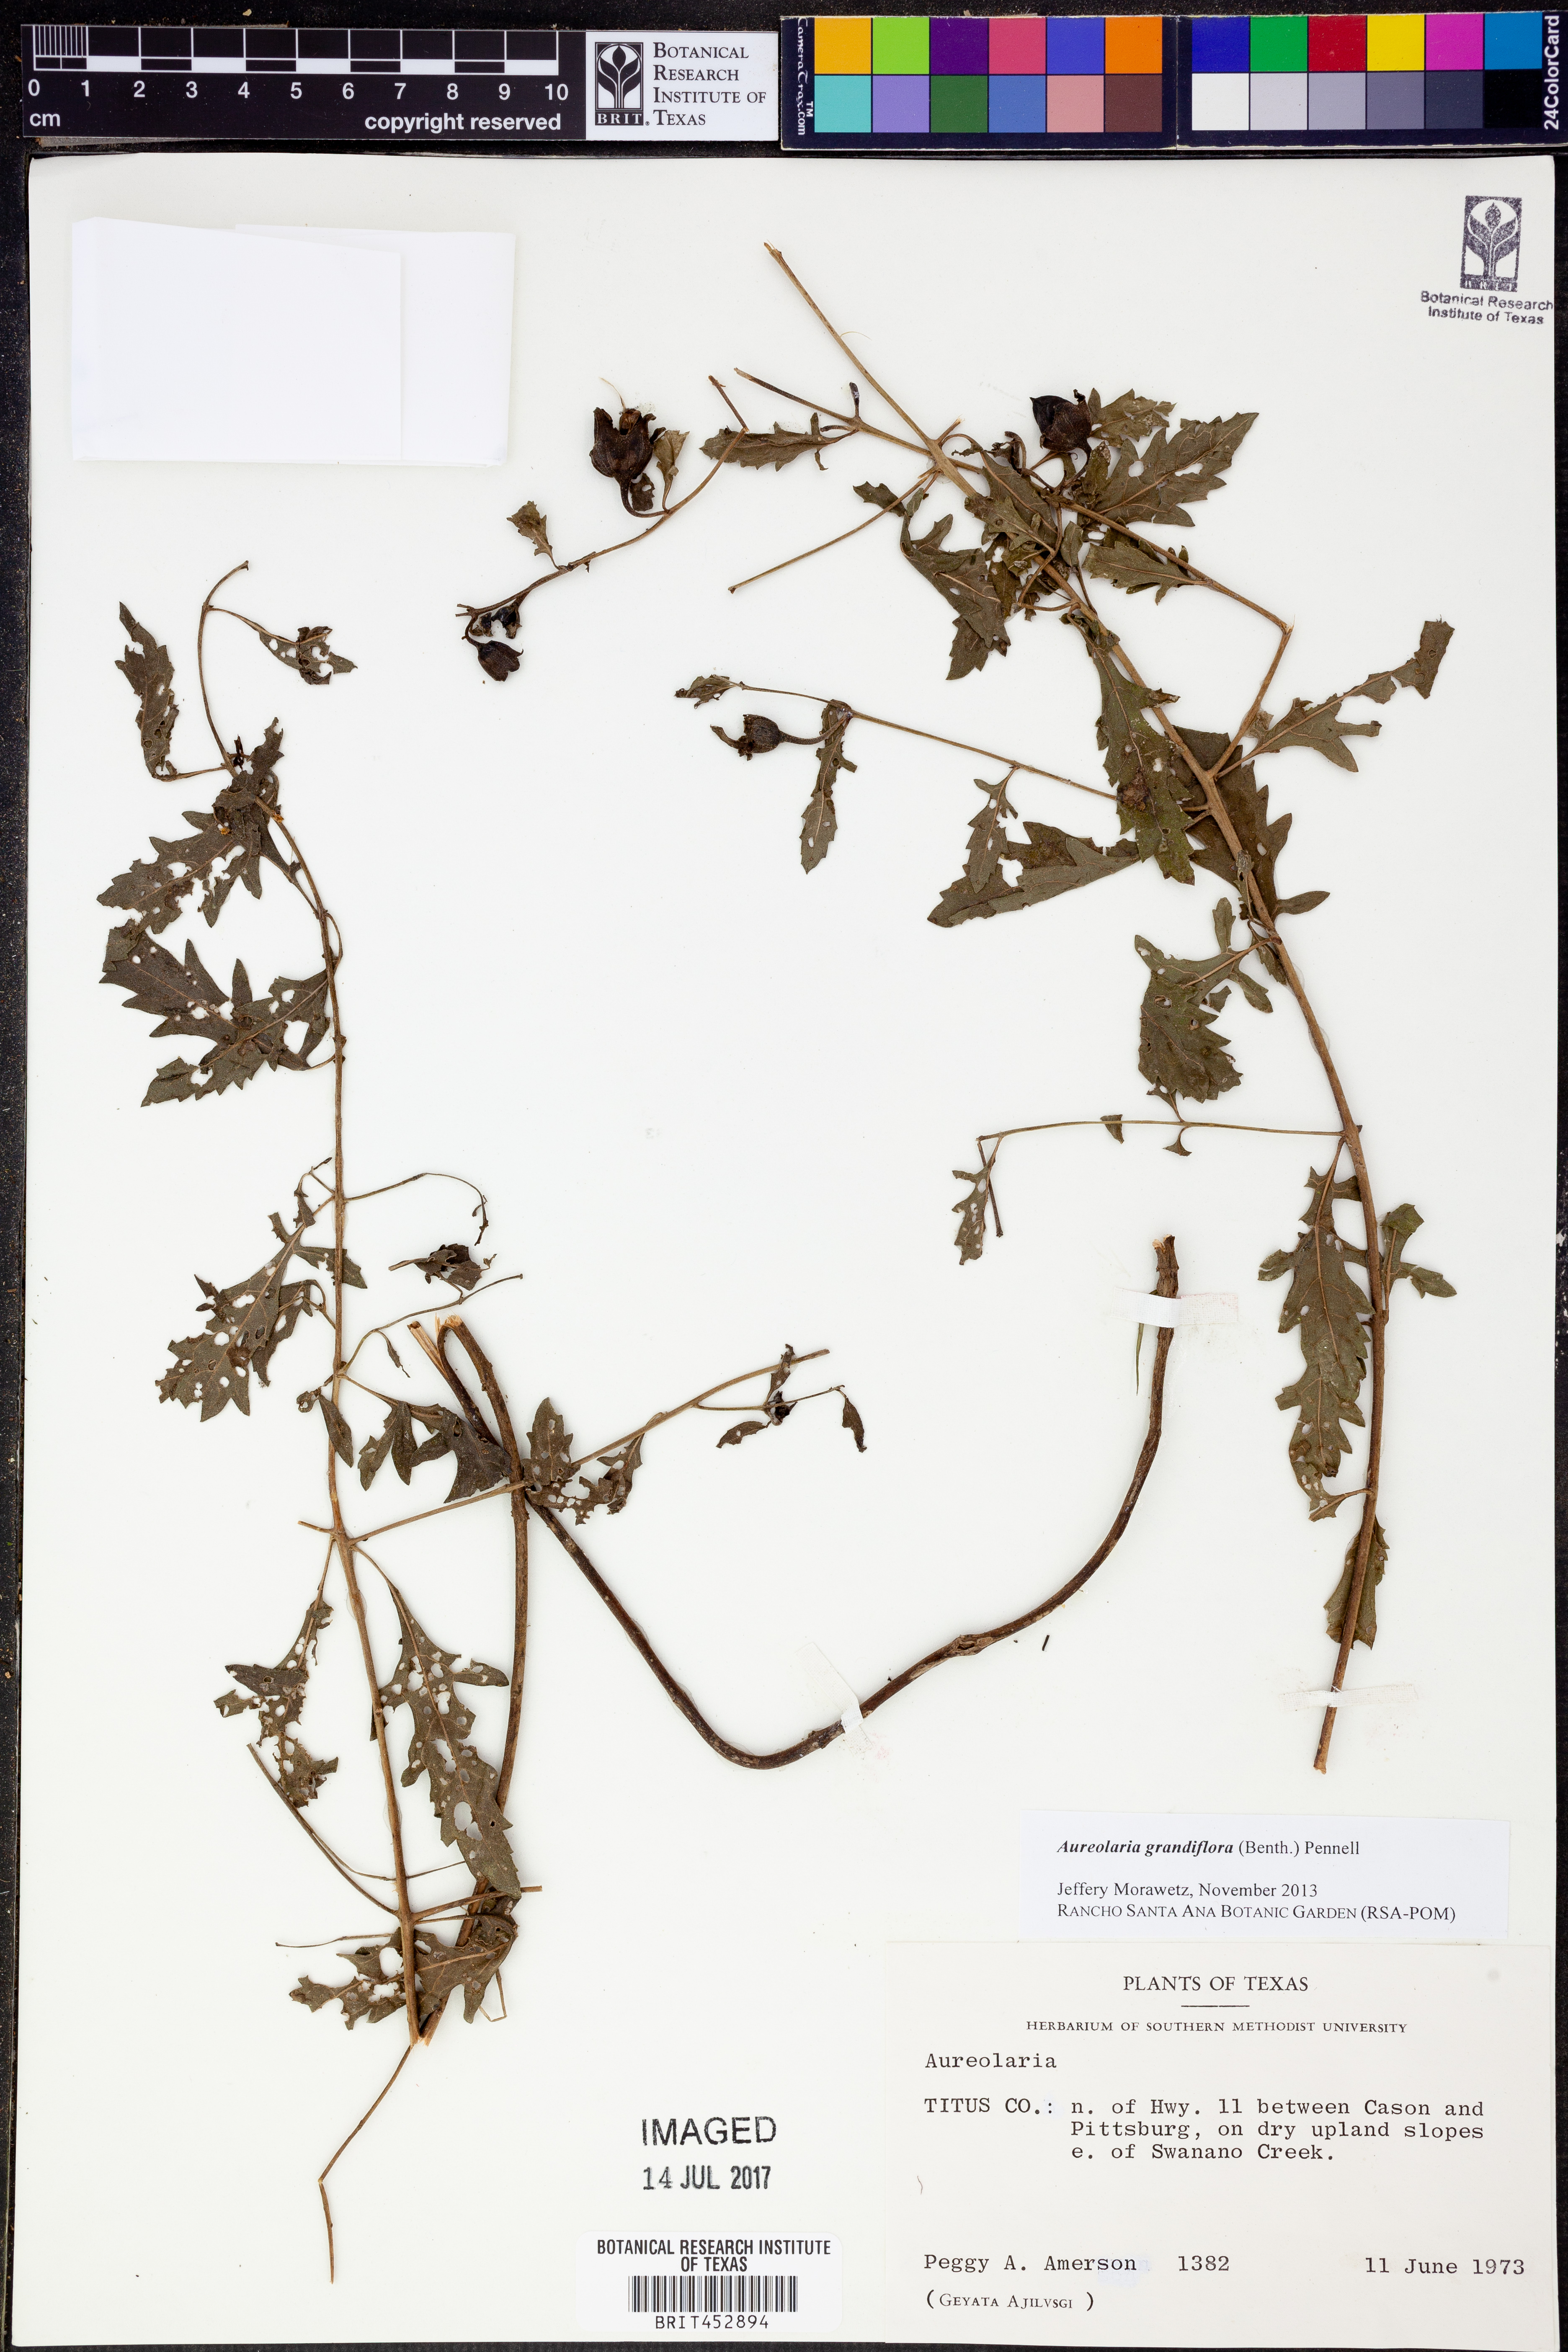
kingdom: Plantae
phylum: Tracheophyta
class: Magnoliopsida
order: Lamiales
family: Orobanchaceae
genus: Aureolaria
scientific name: Aureolaria grandiflora
